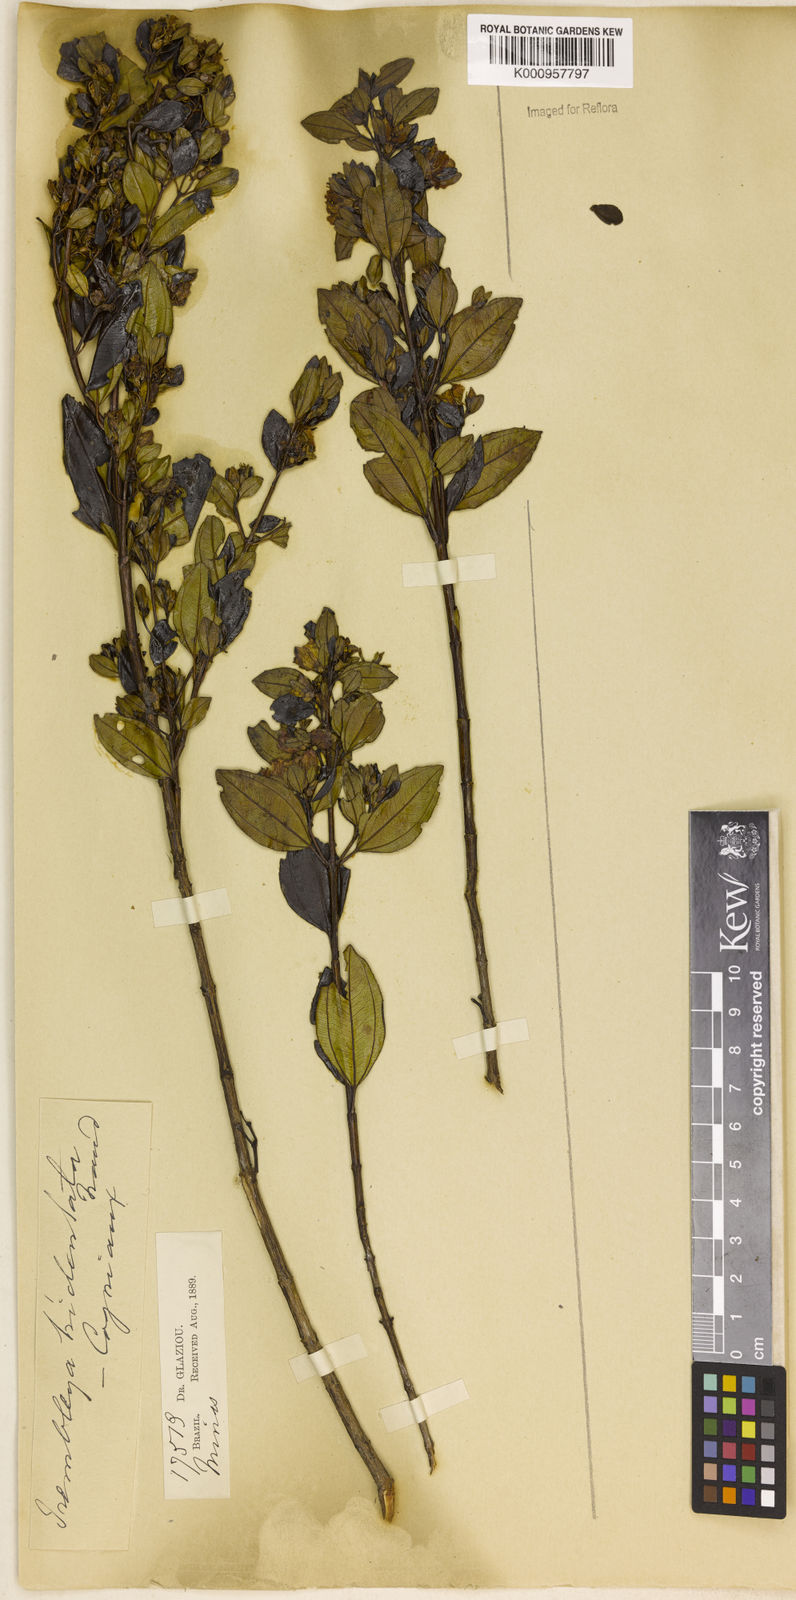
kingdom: Plantae
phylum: Tracheophyta
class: Magnoliopsida
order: Myrtales
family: Melastomataceae
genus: Microlicia
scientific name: Microlicia tridentata
